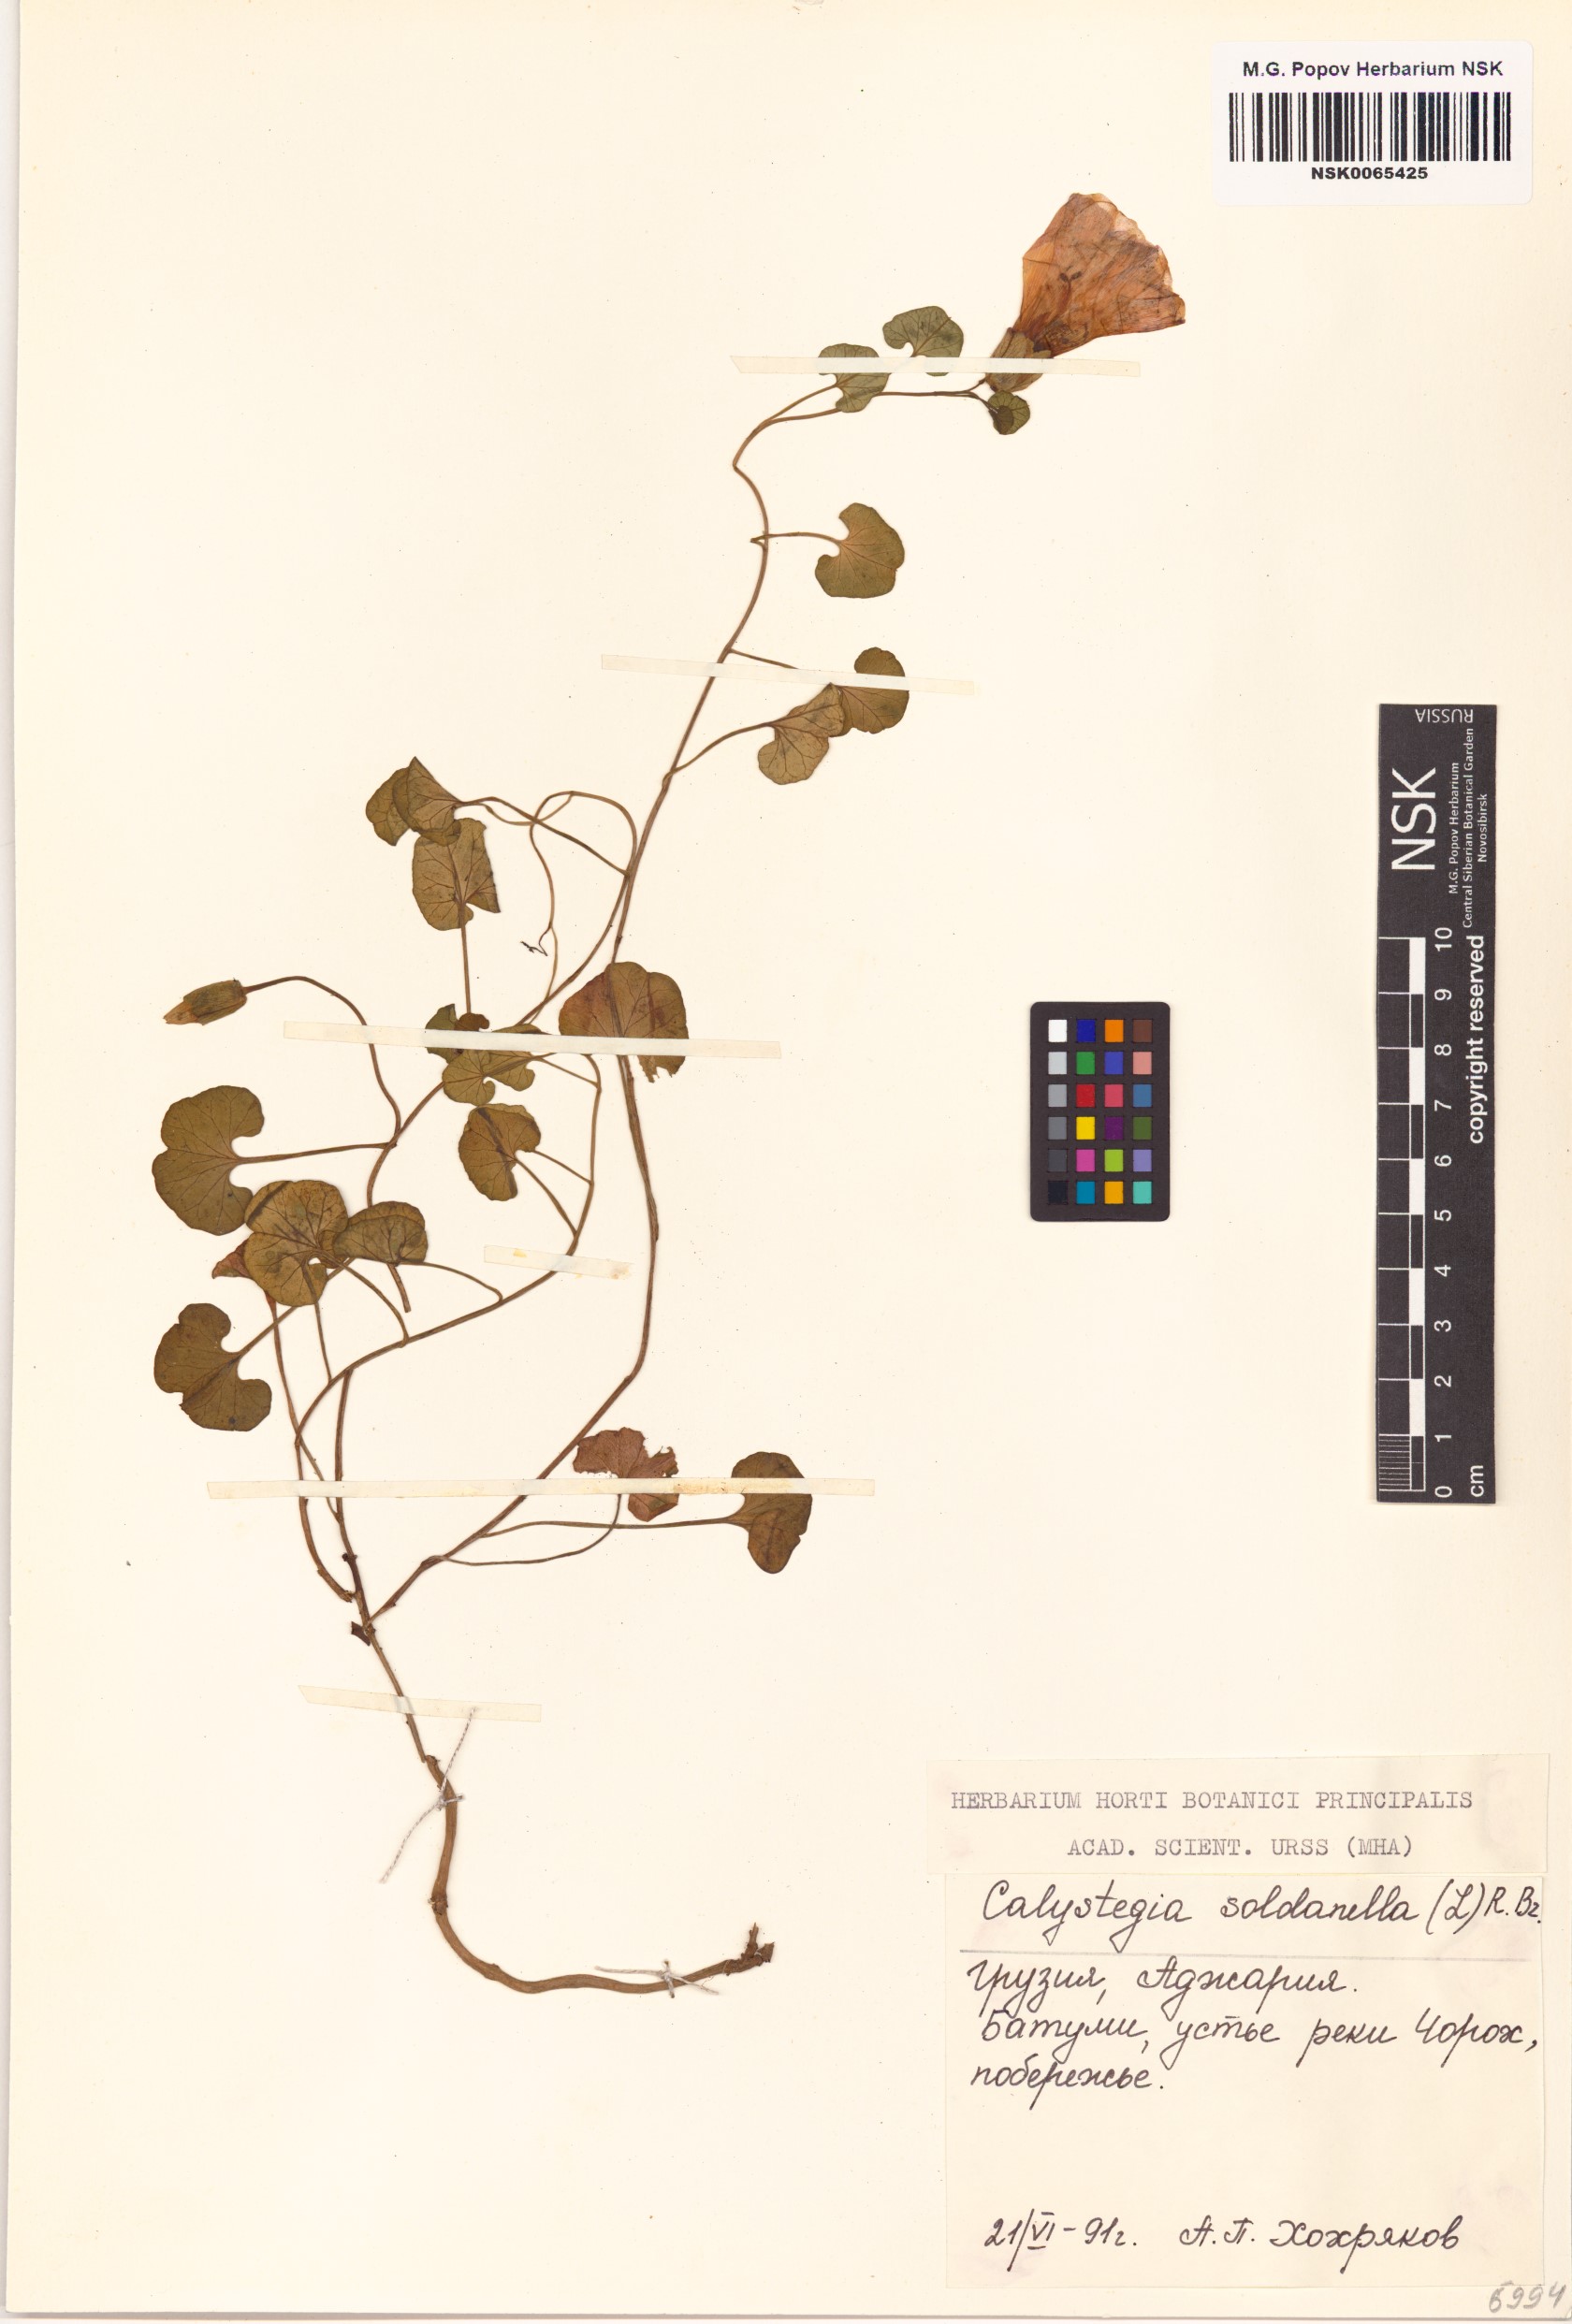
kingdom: Plantae
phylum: Tracheophyta
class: Magnoliopsida
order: Solanales
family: Convolvulaceae
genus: Calystegia
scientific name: Calystegia soldanella
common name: Sea bindweed
